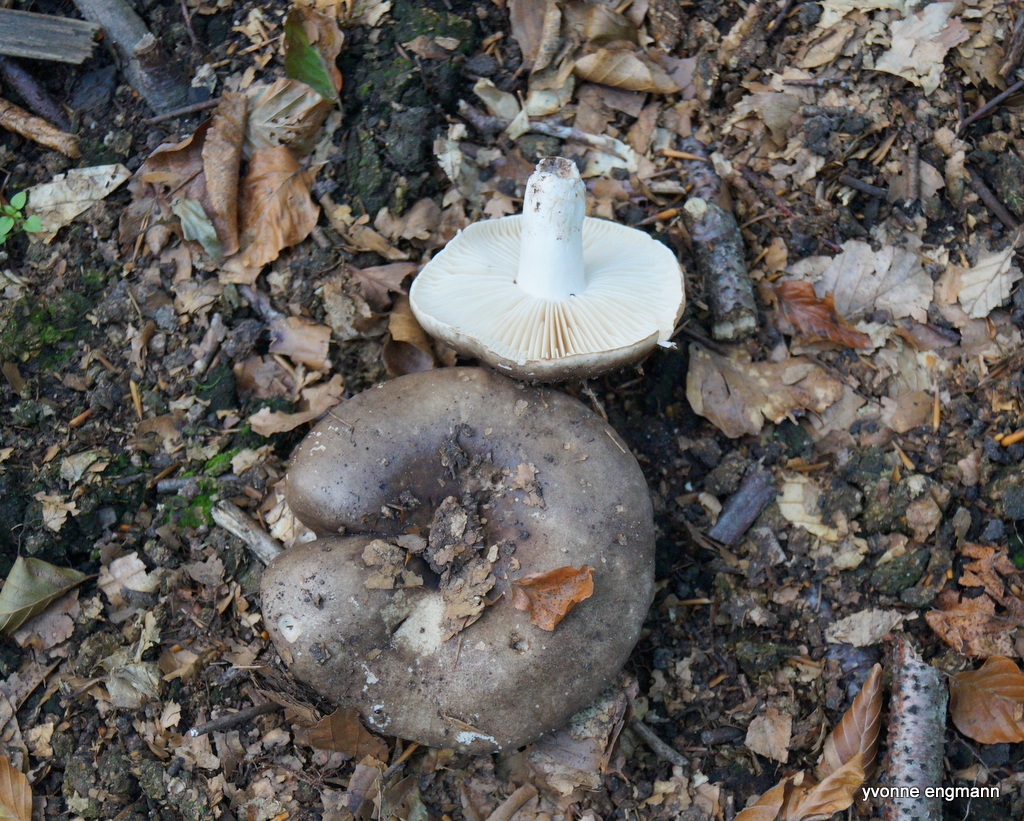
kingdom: Fungi
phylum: Basidiomycota
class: Agaricomycetes
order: Russulales
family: Russulaceae
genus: Russula
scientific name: Russula adusta
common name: sværtende skørhat
